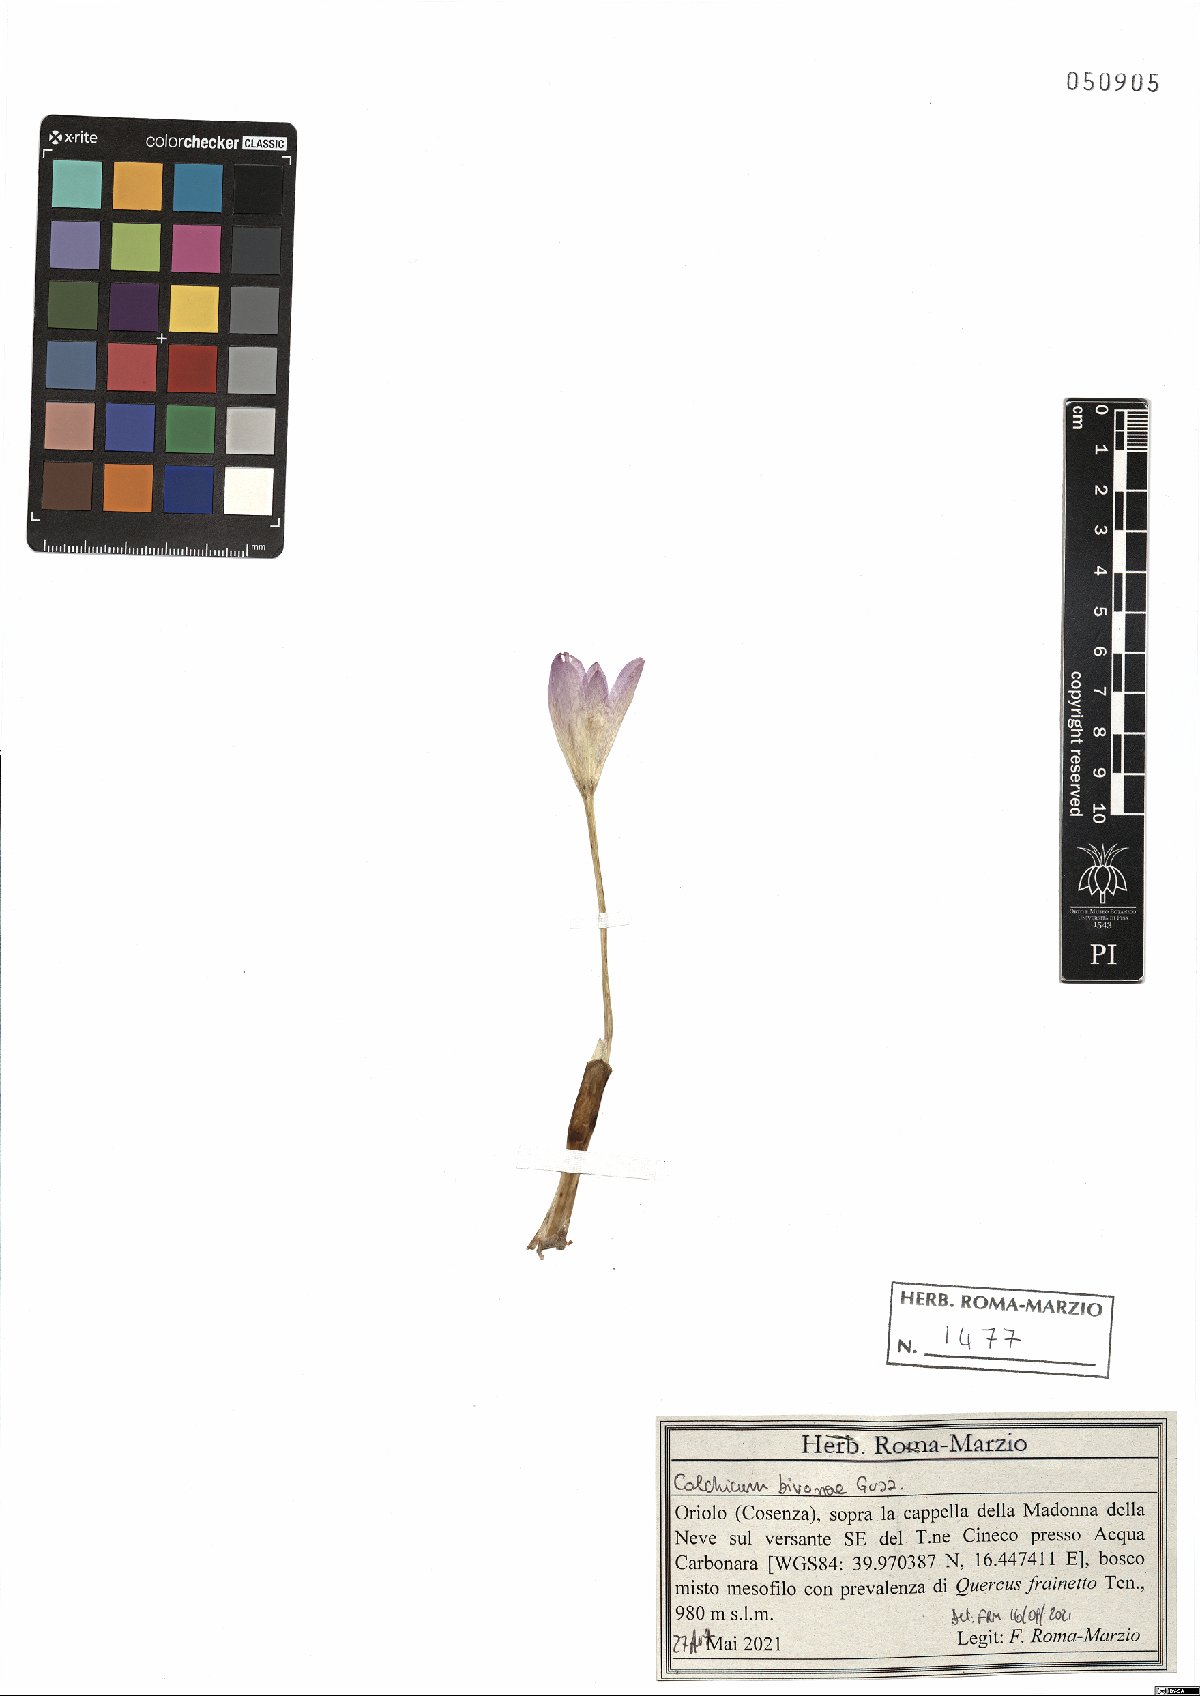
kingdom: Plantae
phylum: Tracheophyta
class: Liliopsida
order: Liliales
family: Colchicaceae
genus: Colchicum
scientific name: Colchicum bivonae
